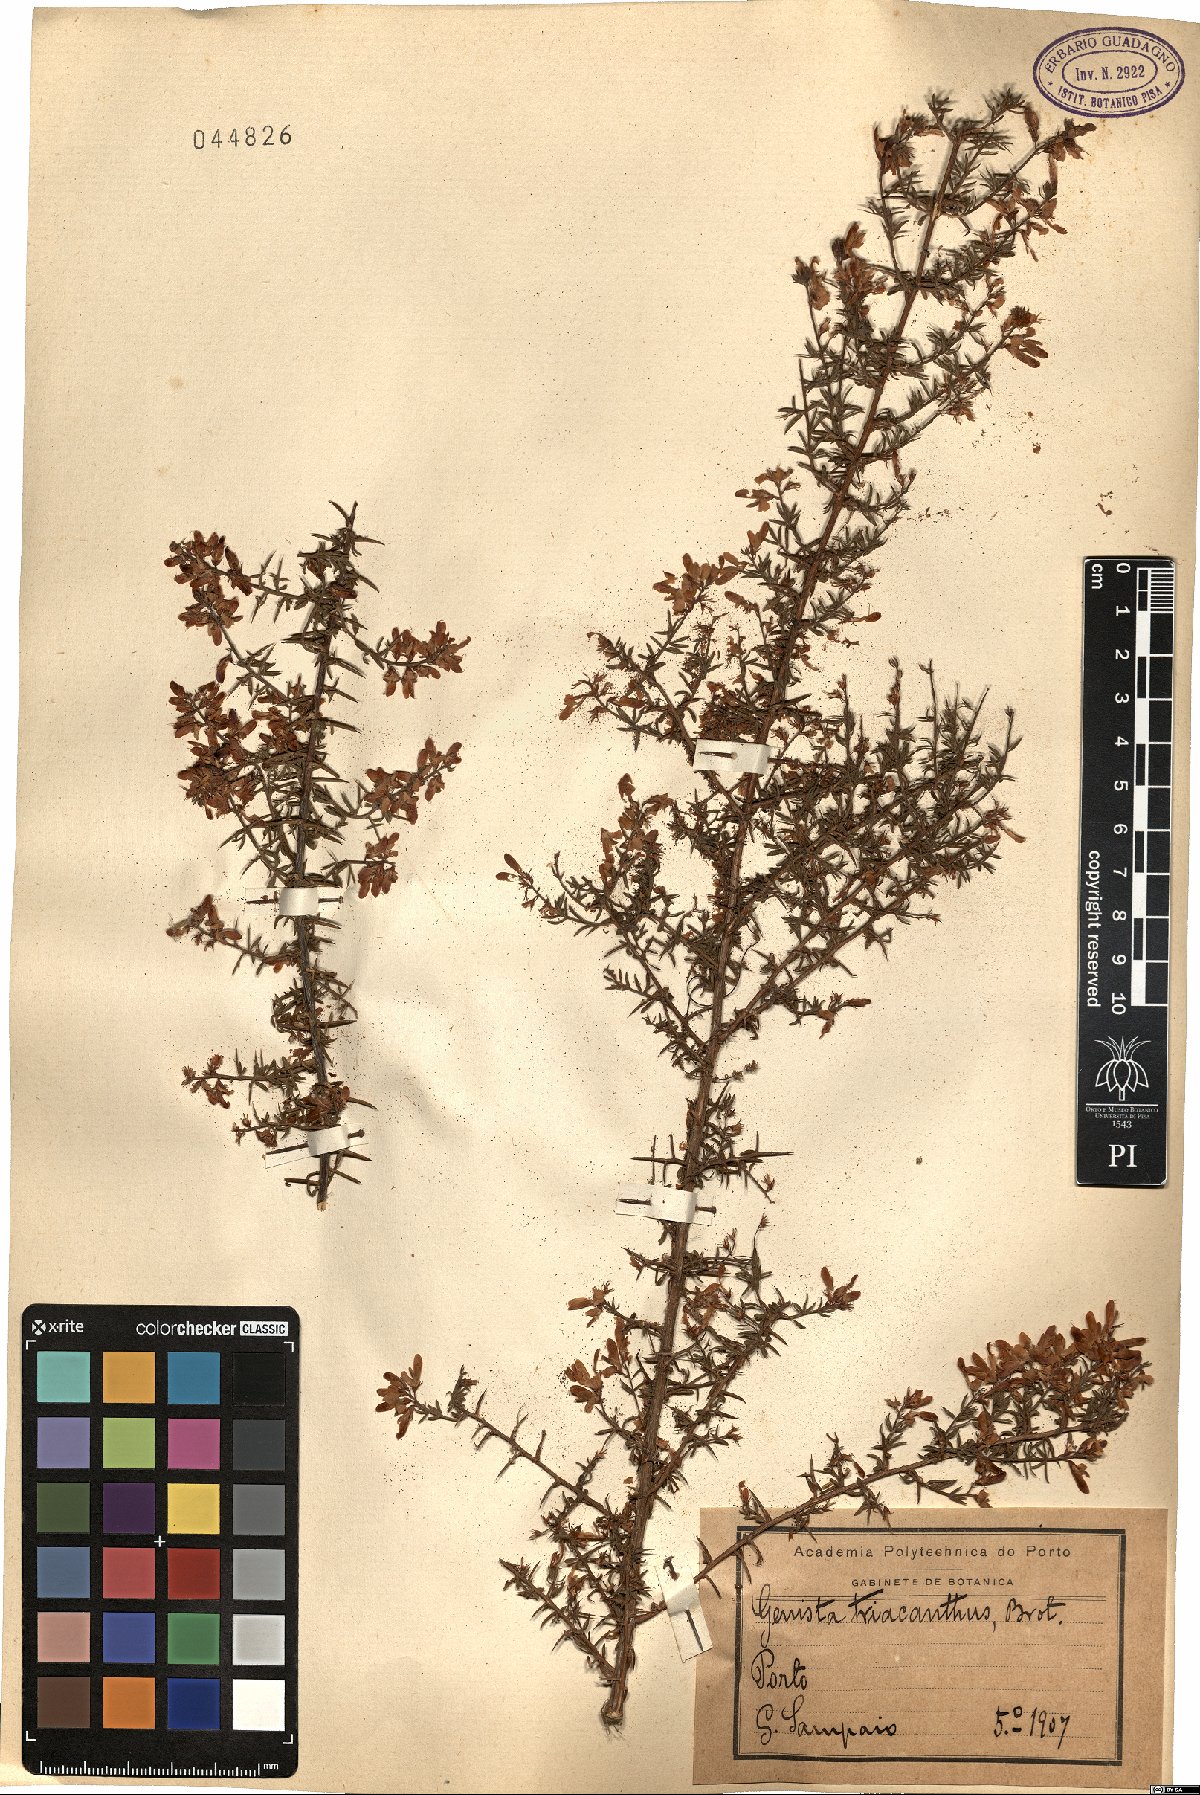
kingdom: Plantae
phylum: Tracheophyta
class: Magnoliopsida
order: Fabales
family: Fabaceae
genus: Genista
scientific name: Genista triacanthos
